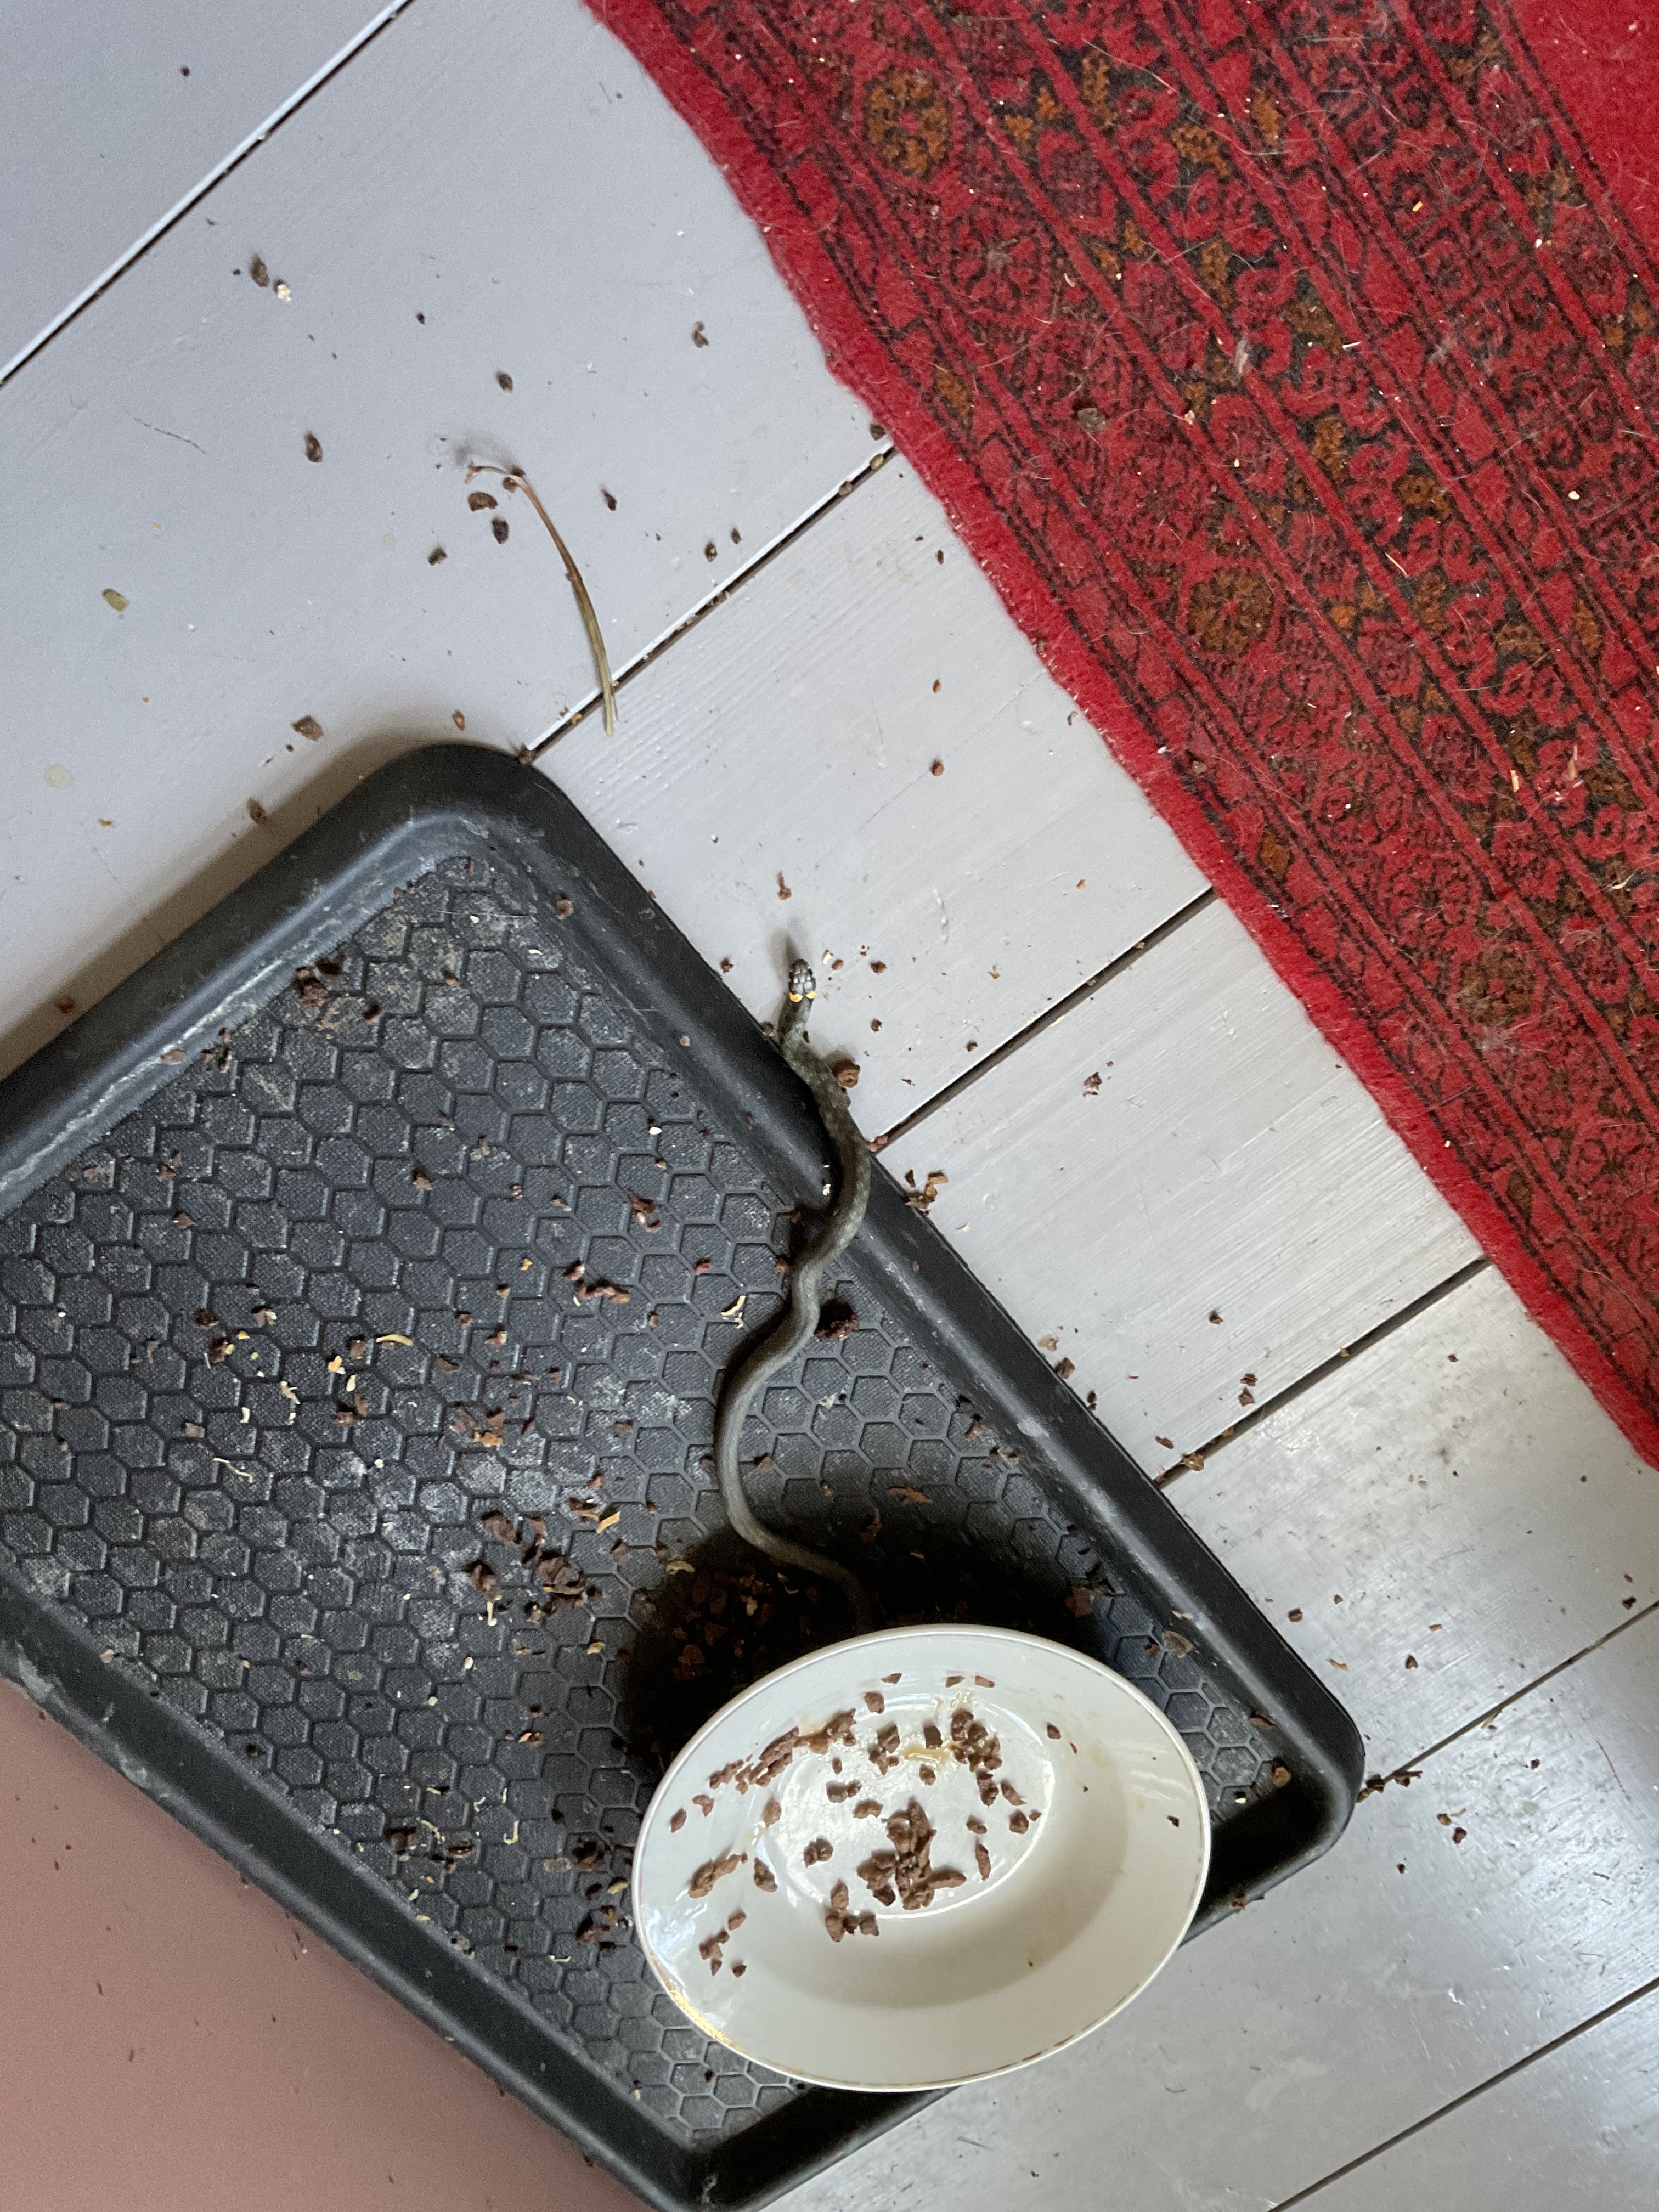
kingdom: Animalia
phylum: Chordata
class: Squamata
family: Colubridae
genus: Natrix
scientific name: Natrix natrix
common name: Grass snake
